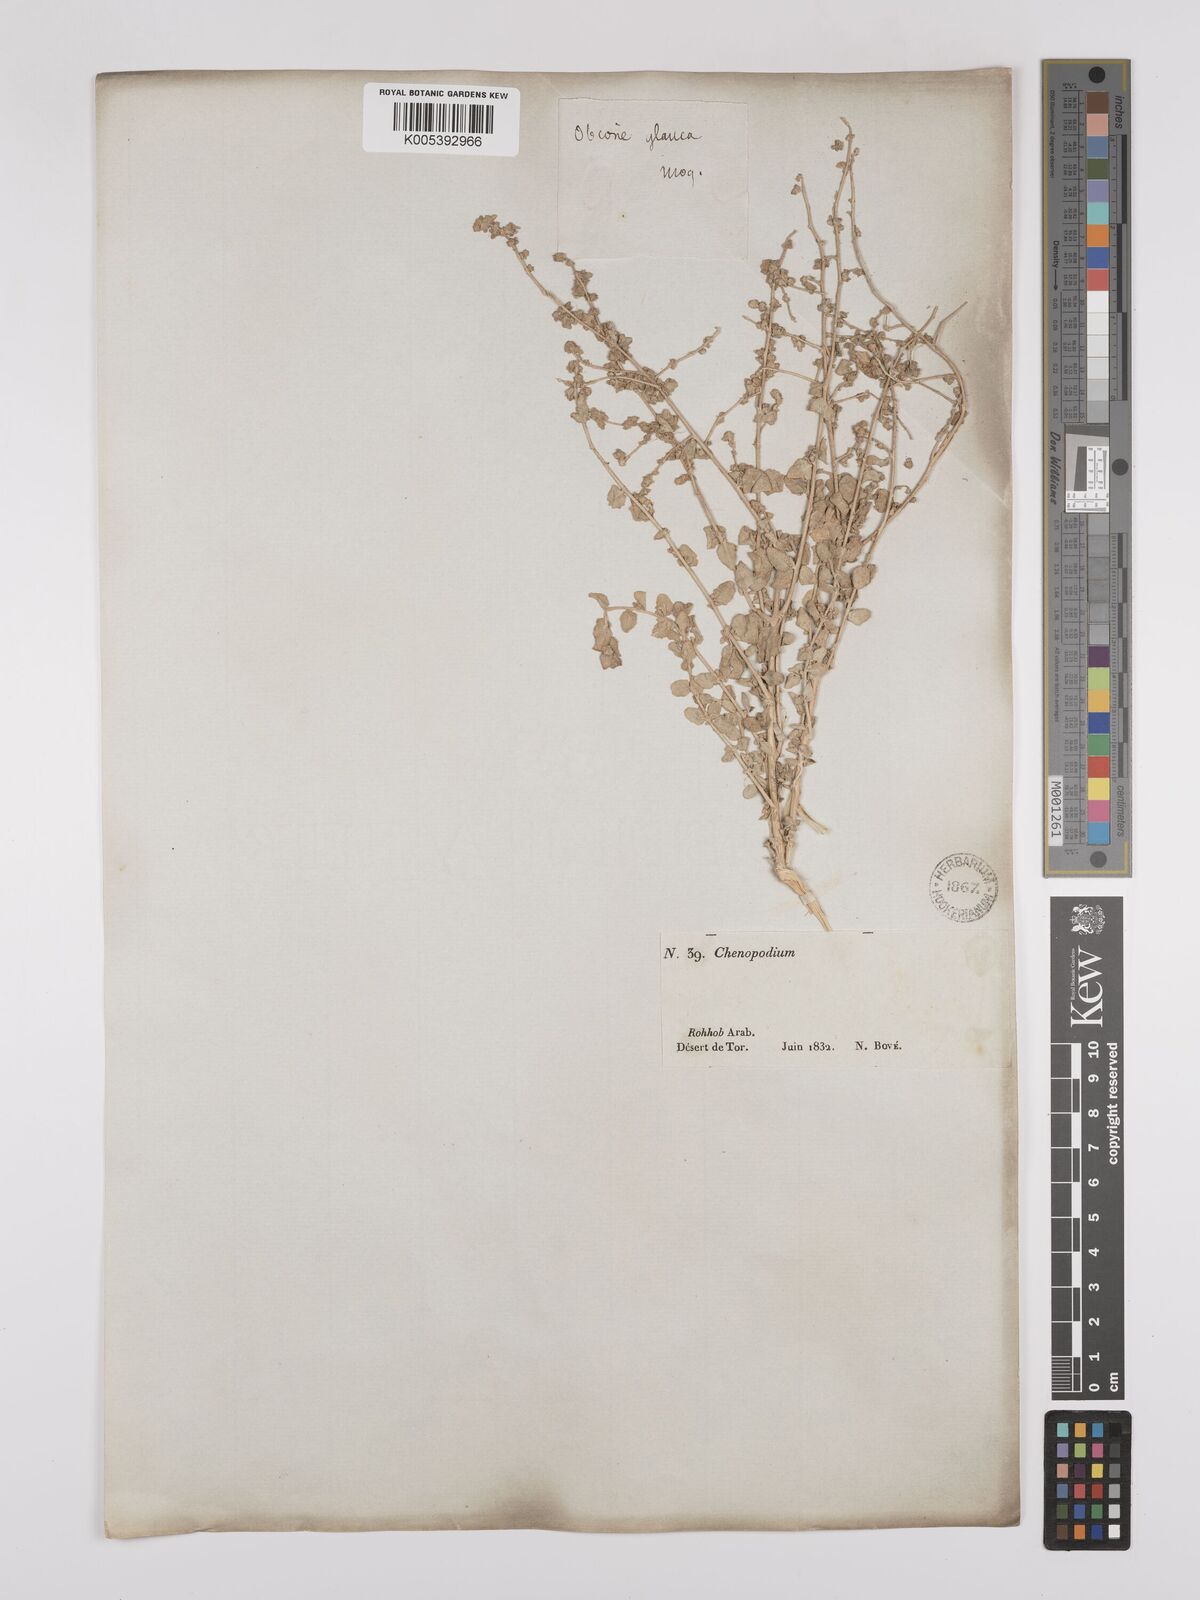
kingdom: Plantae
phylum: Tracheophyta
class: Magnoliopsida
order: Caryophyllales
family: Amaranthaceae
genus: Atriplex
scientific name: Atriplex
